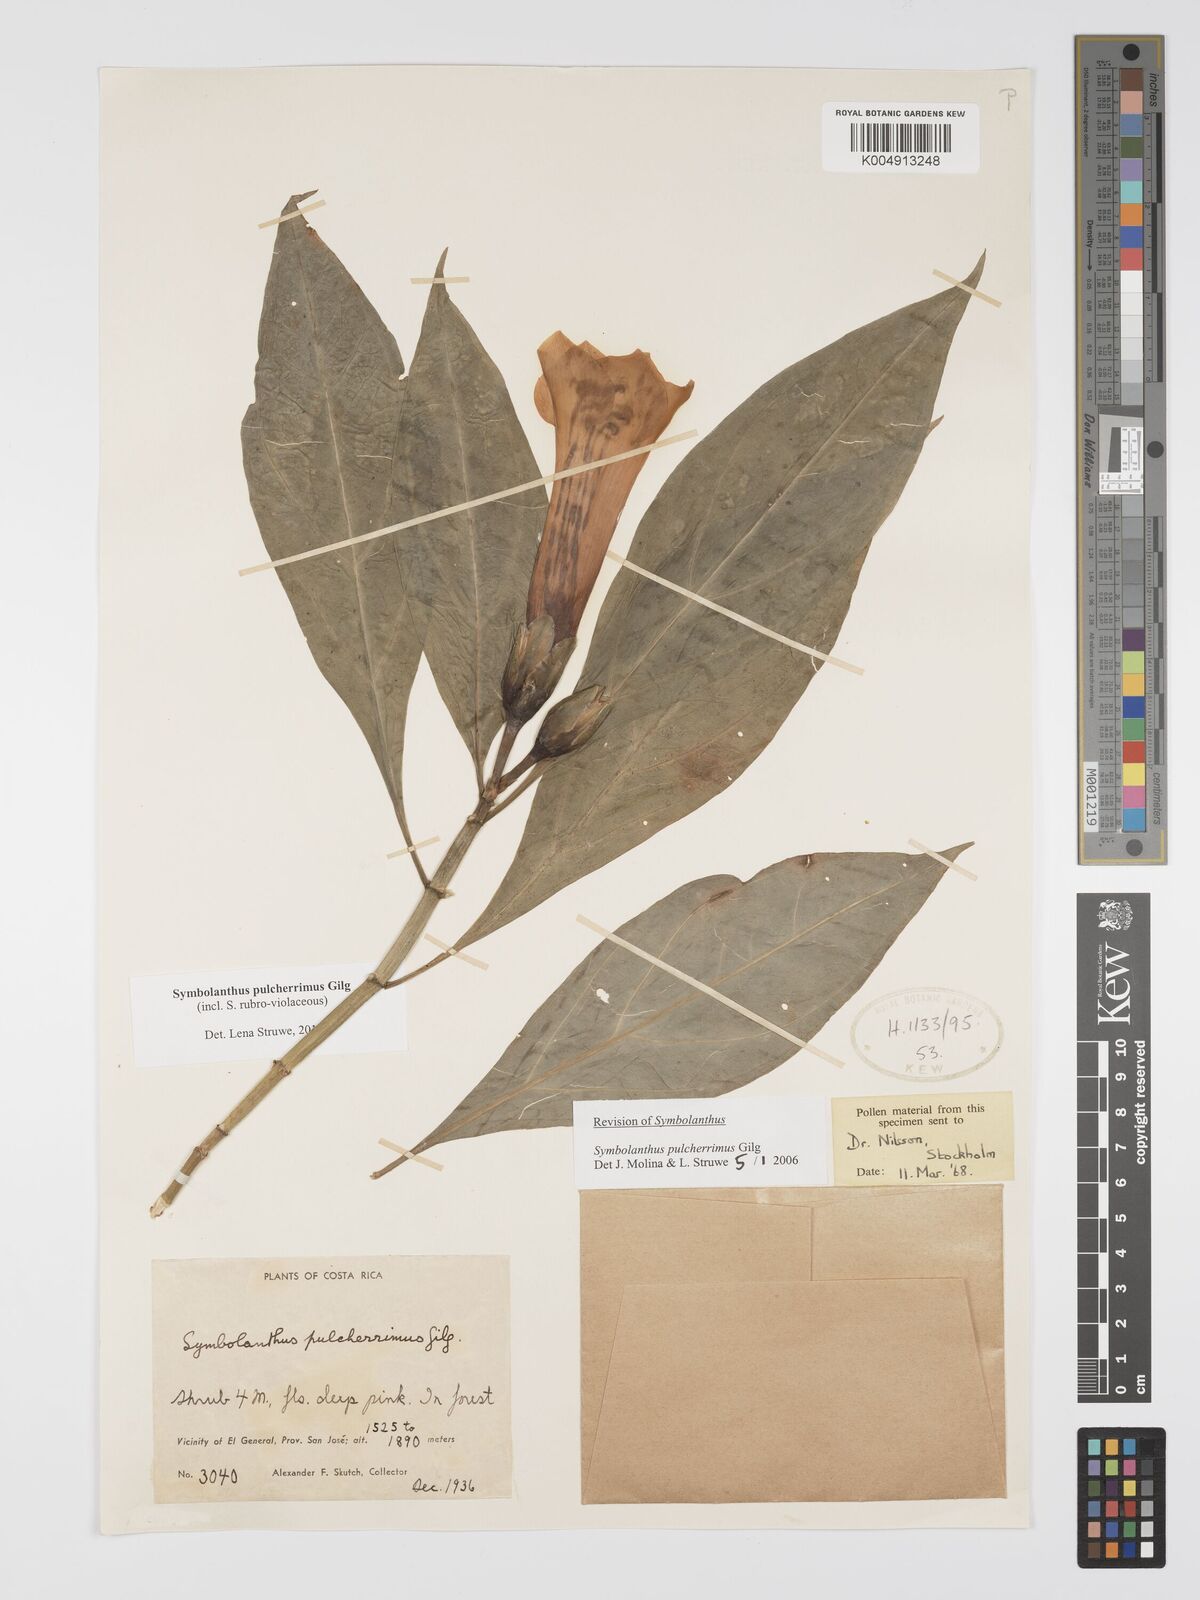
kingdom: Plantae
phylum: Tracheophyta
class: Magnoliopsida
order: Gentianales
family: Gentianaceae
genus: Symbolanthus
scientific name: Symbolanthus pulcherrimus
